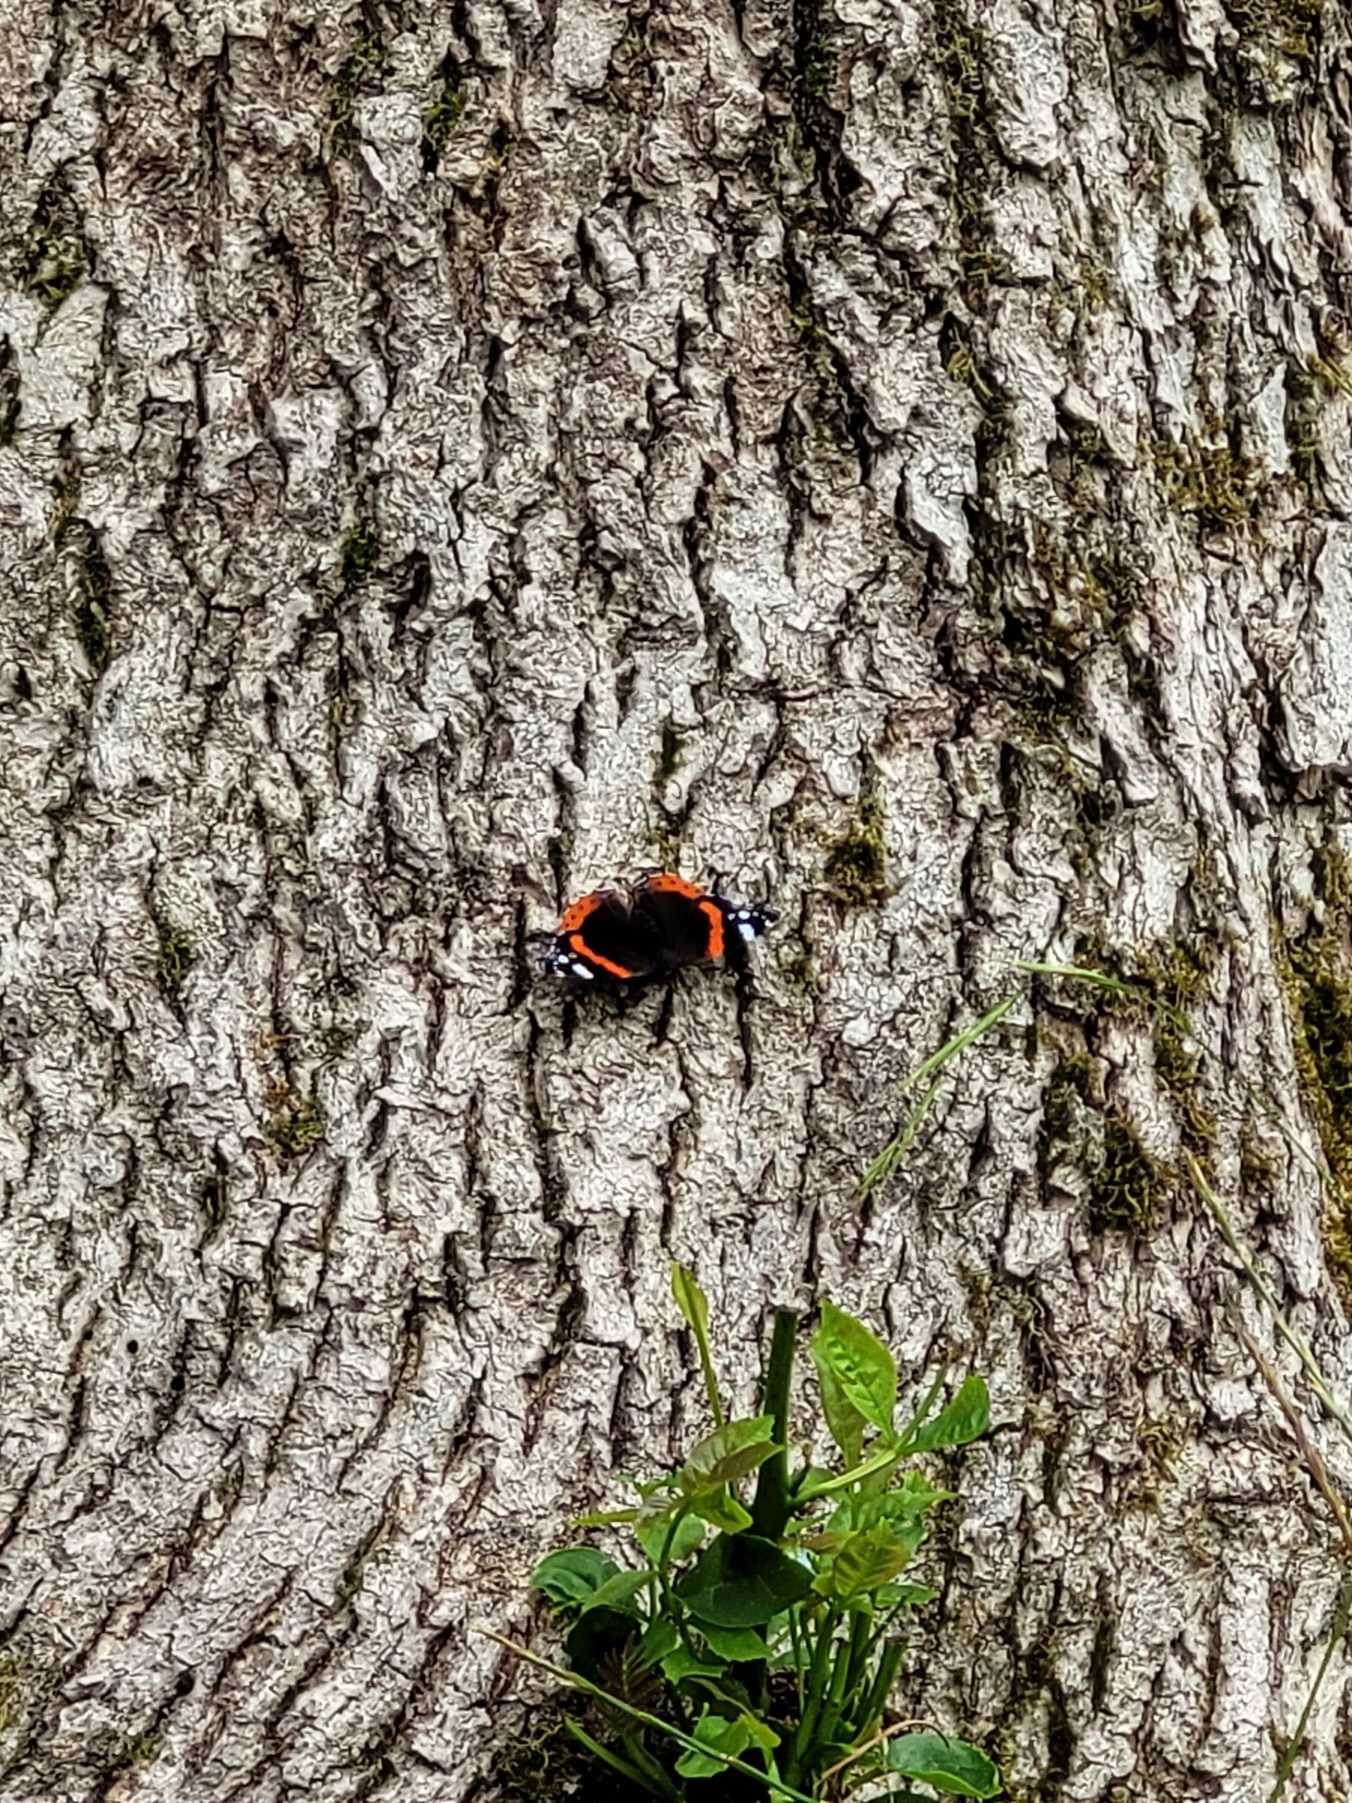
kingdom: Animalia
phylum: Arthropoda
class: Insecta
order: Lepidoptera
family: Nymphalidae
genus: Vanessa
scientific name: Vanessa atalanta
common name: Admiral
